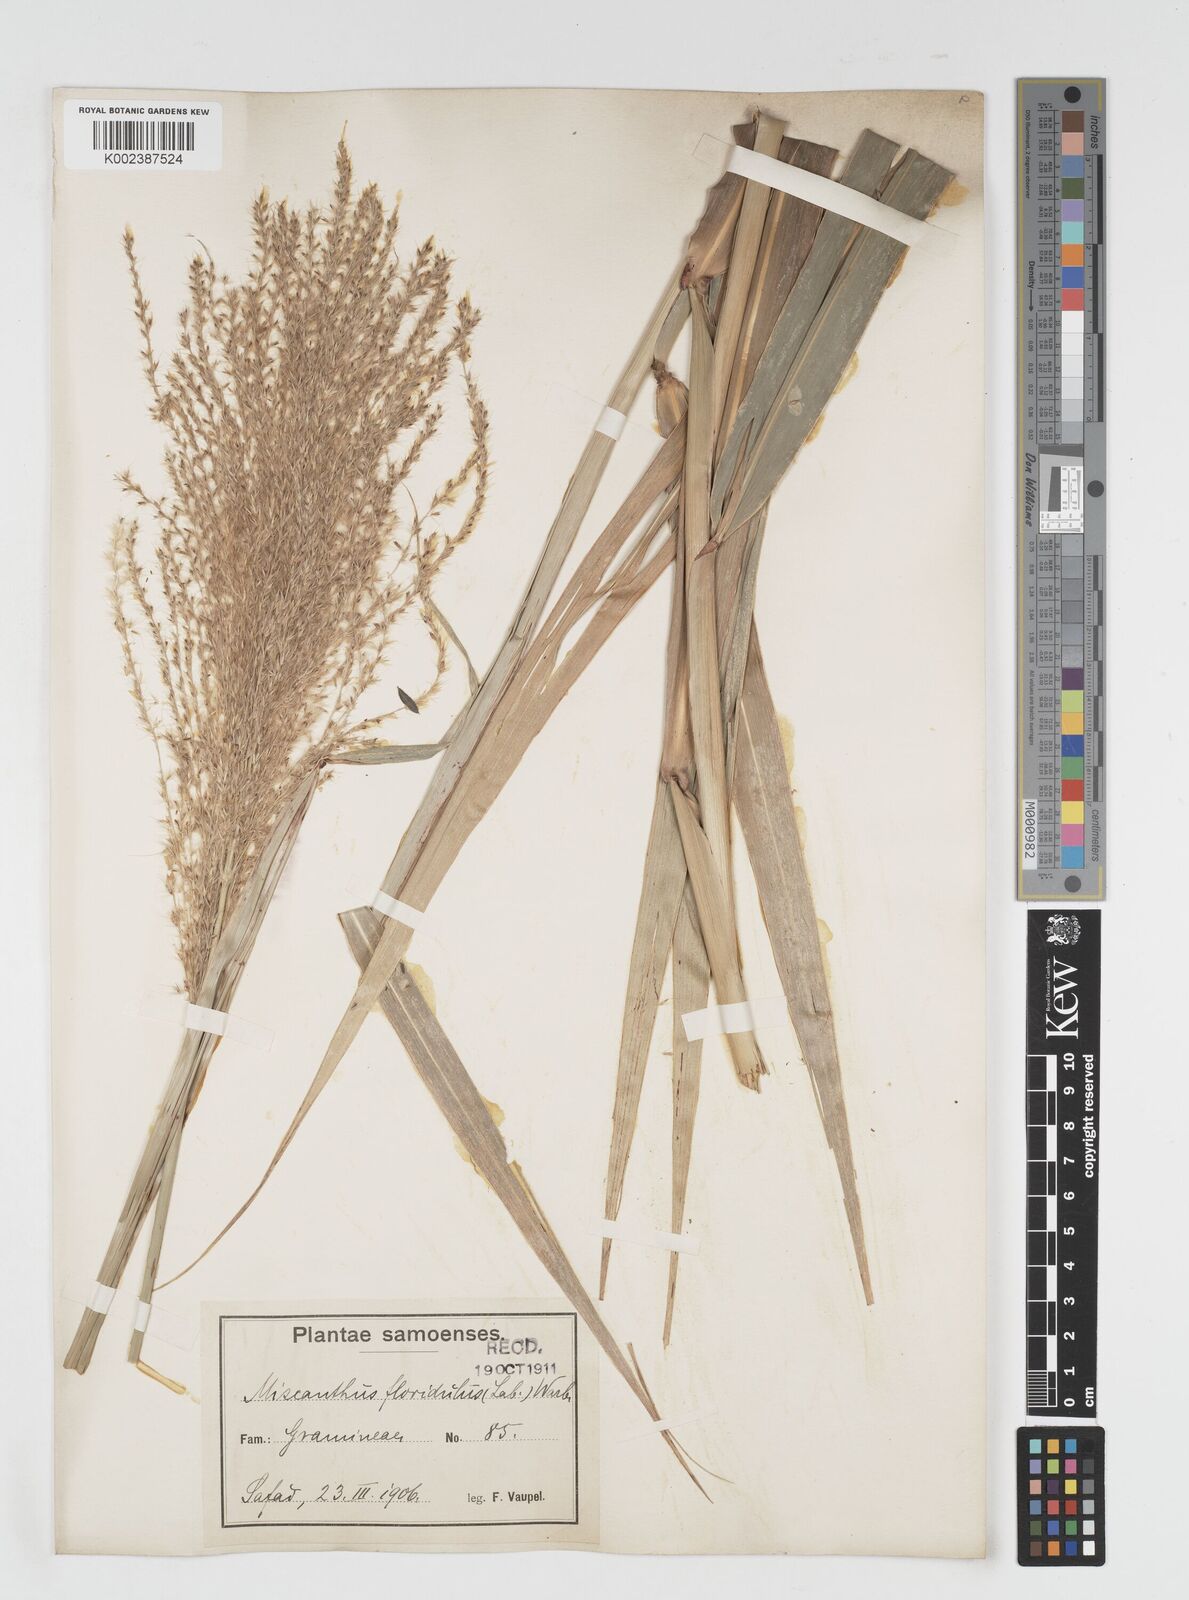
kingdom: Plantae
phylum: Tracheophyta
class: Liliopsida
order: Poales
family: Poaceae
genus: Miscanthus
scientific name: Miscanthus floridulus
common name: Pacific island silvergrass
